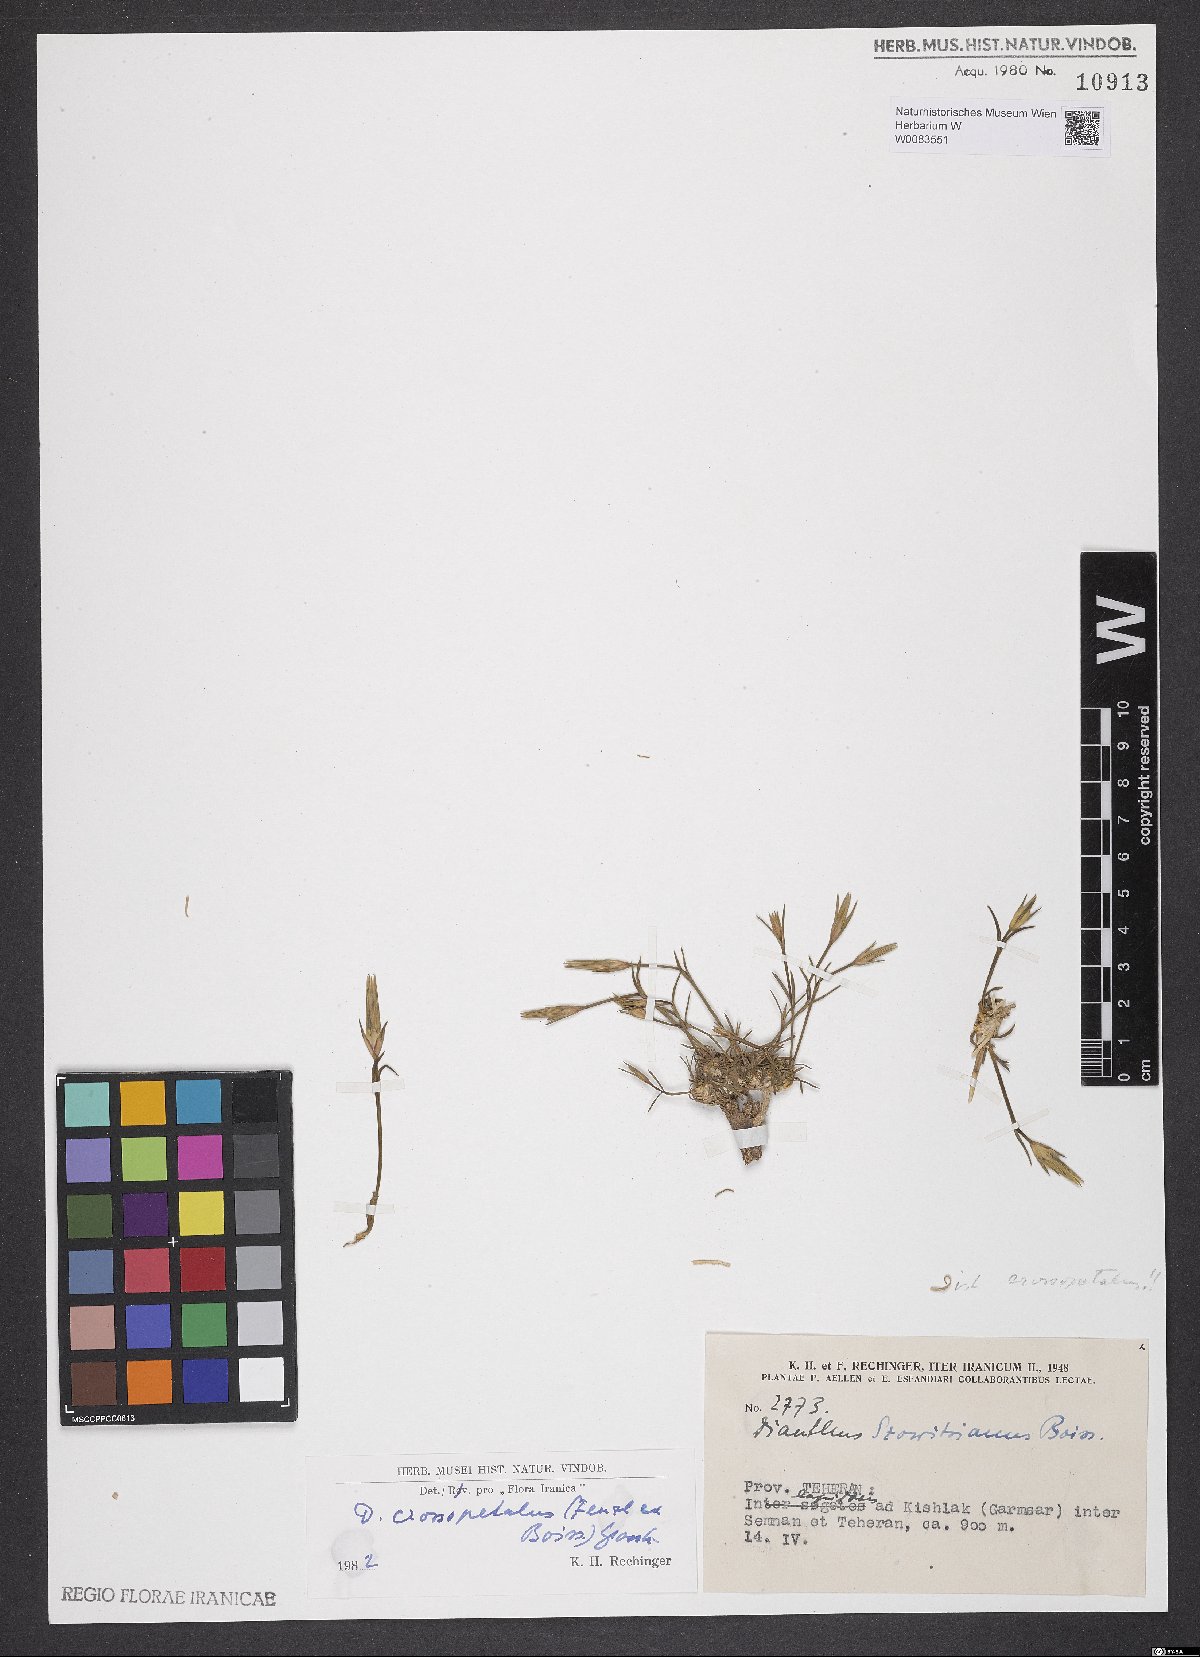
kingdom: Plantae
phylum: Tracheophyta
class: Magnoliopsida
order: Caryophyllales
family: Caryophyllaceae
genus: Dianthus
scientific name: Dianthus crossopetalus
